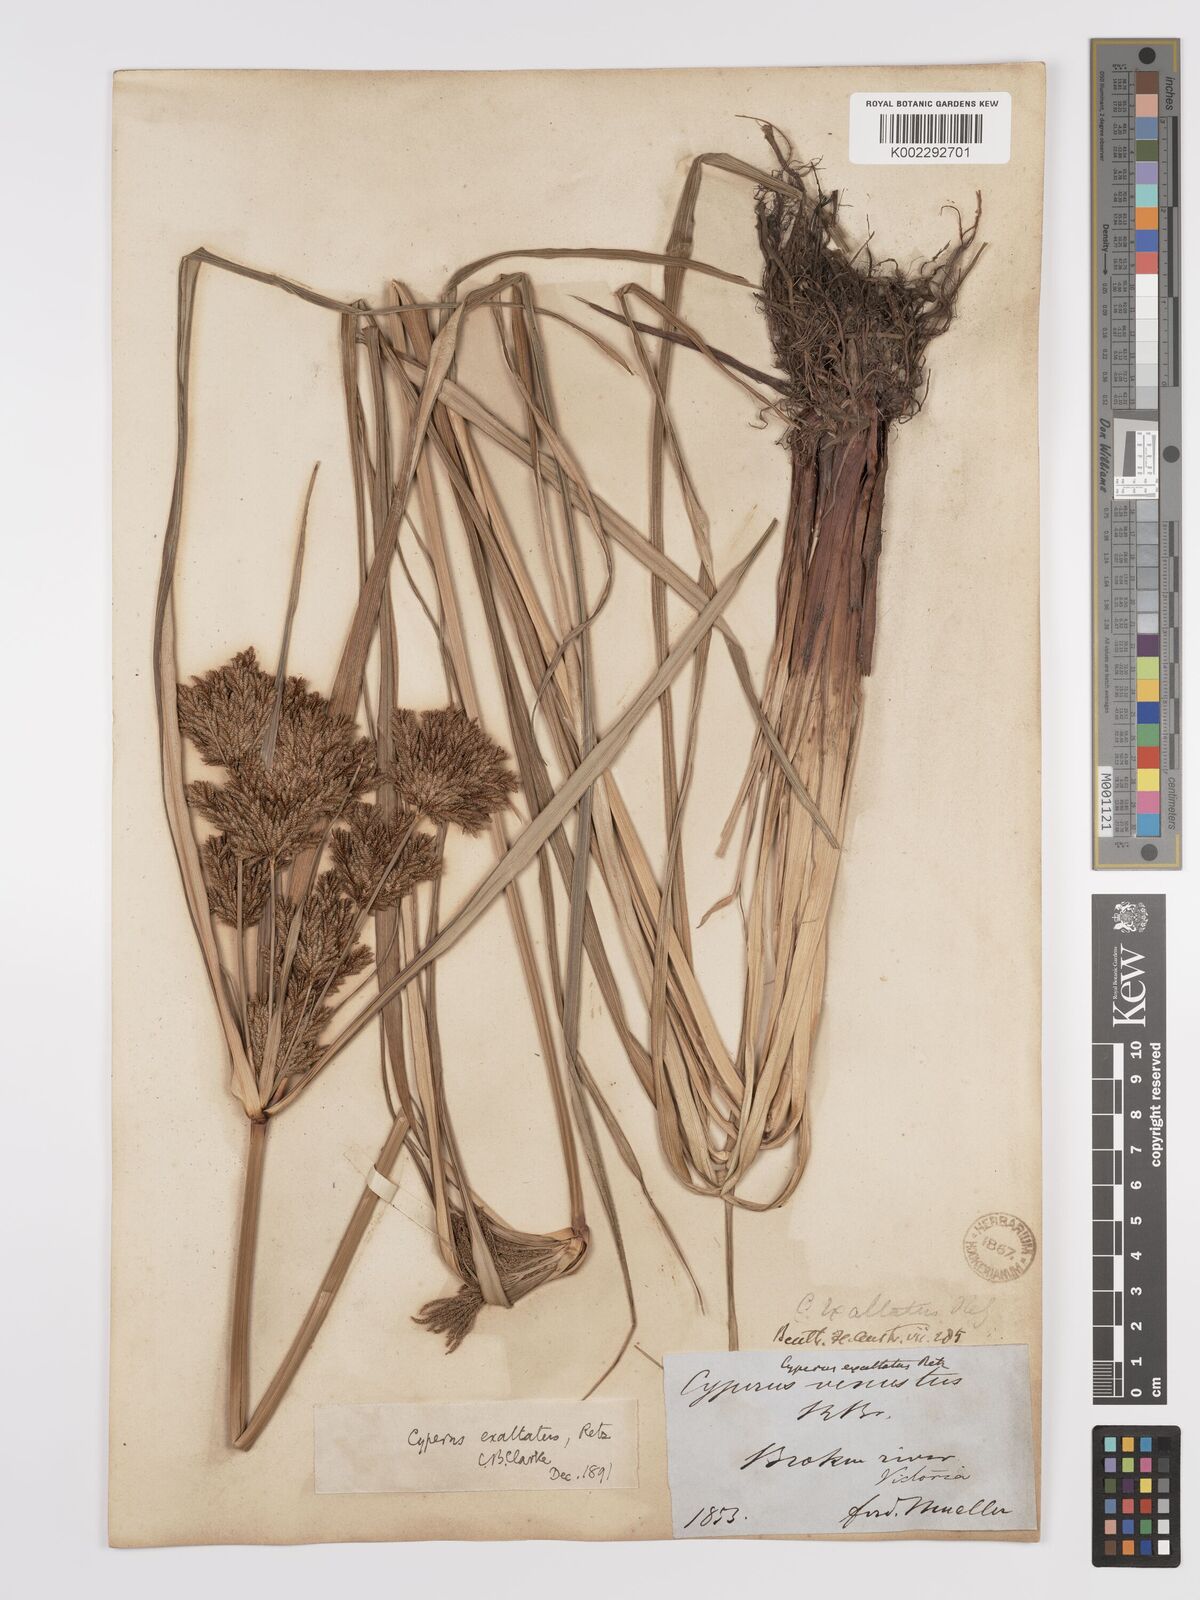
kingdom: Plantae
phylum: Tracheophyta
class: Liliopsida
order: Poales
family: Cyperaceae
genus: Cyperus
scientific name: Cyperus exaltatus
